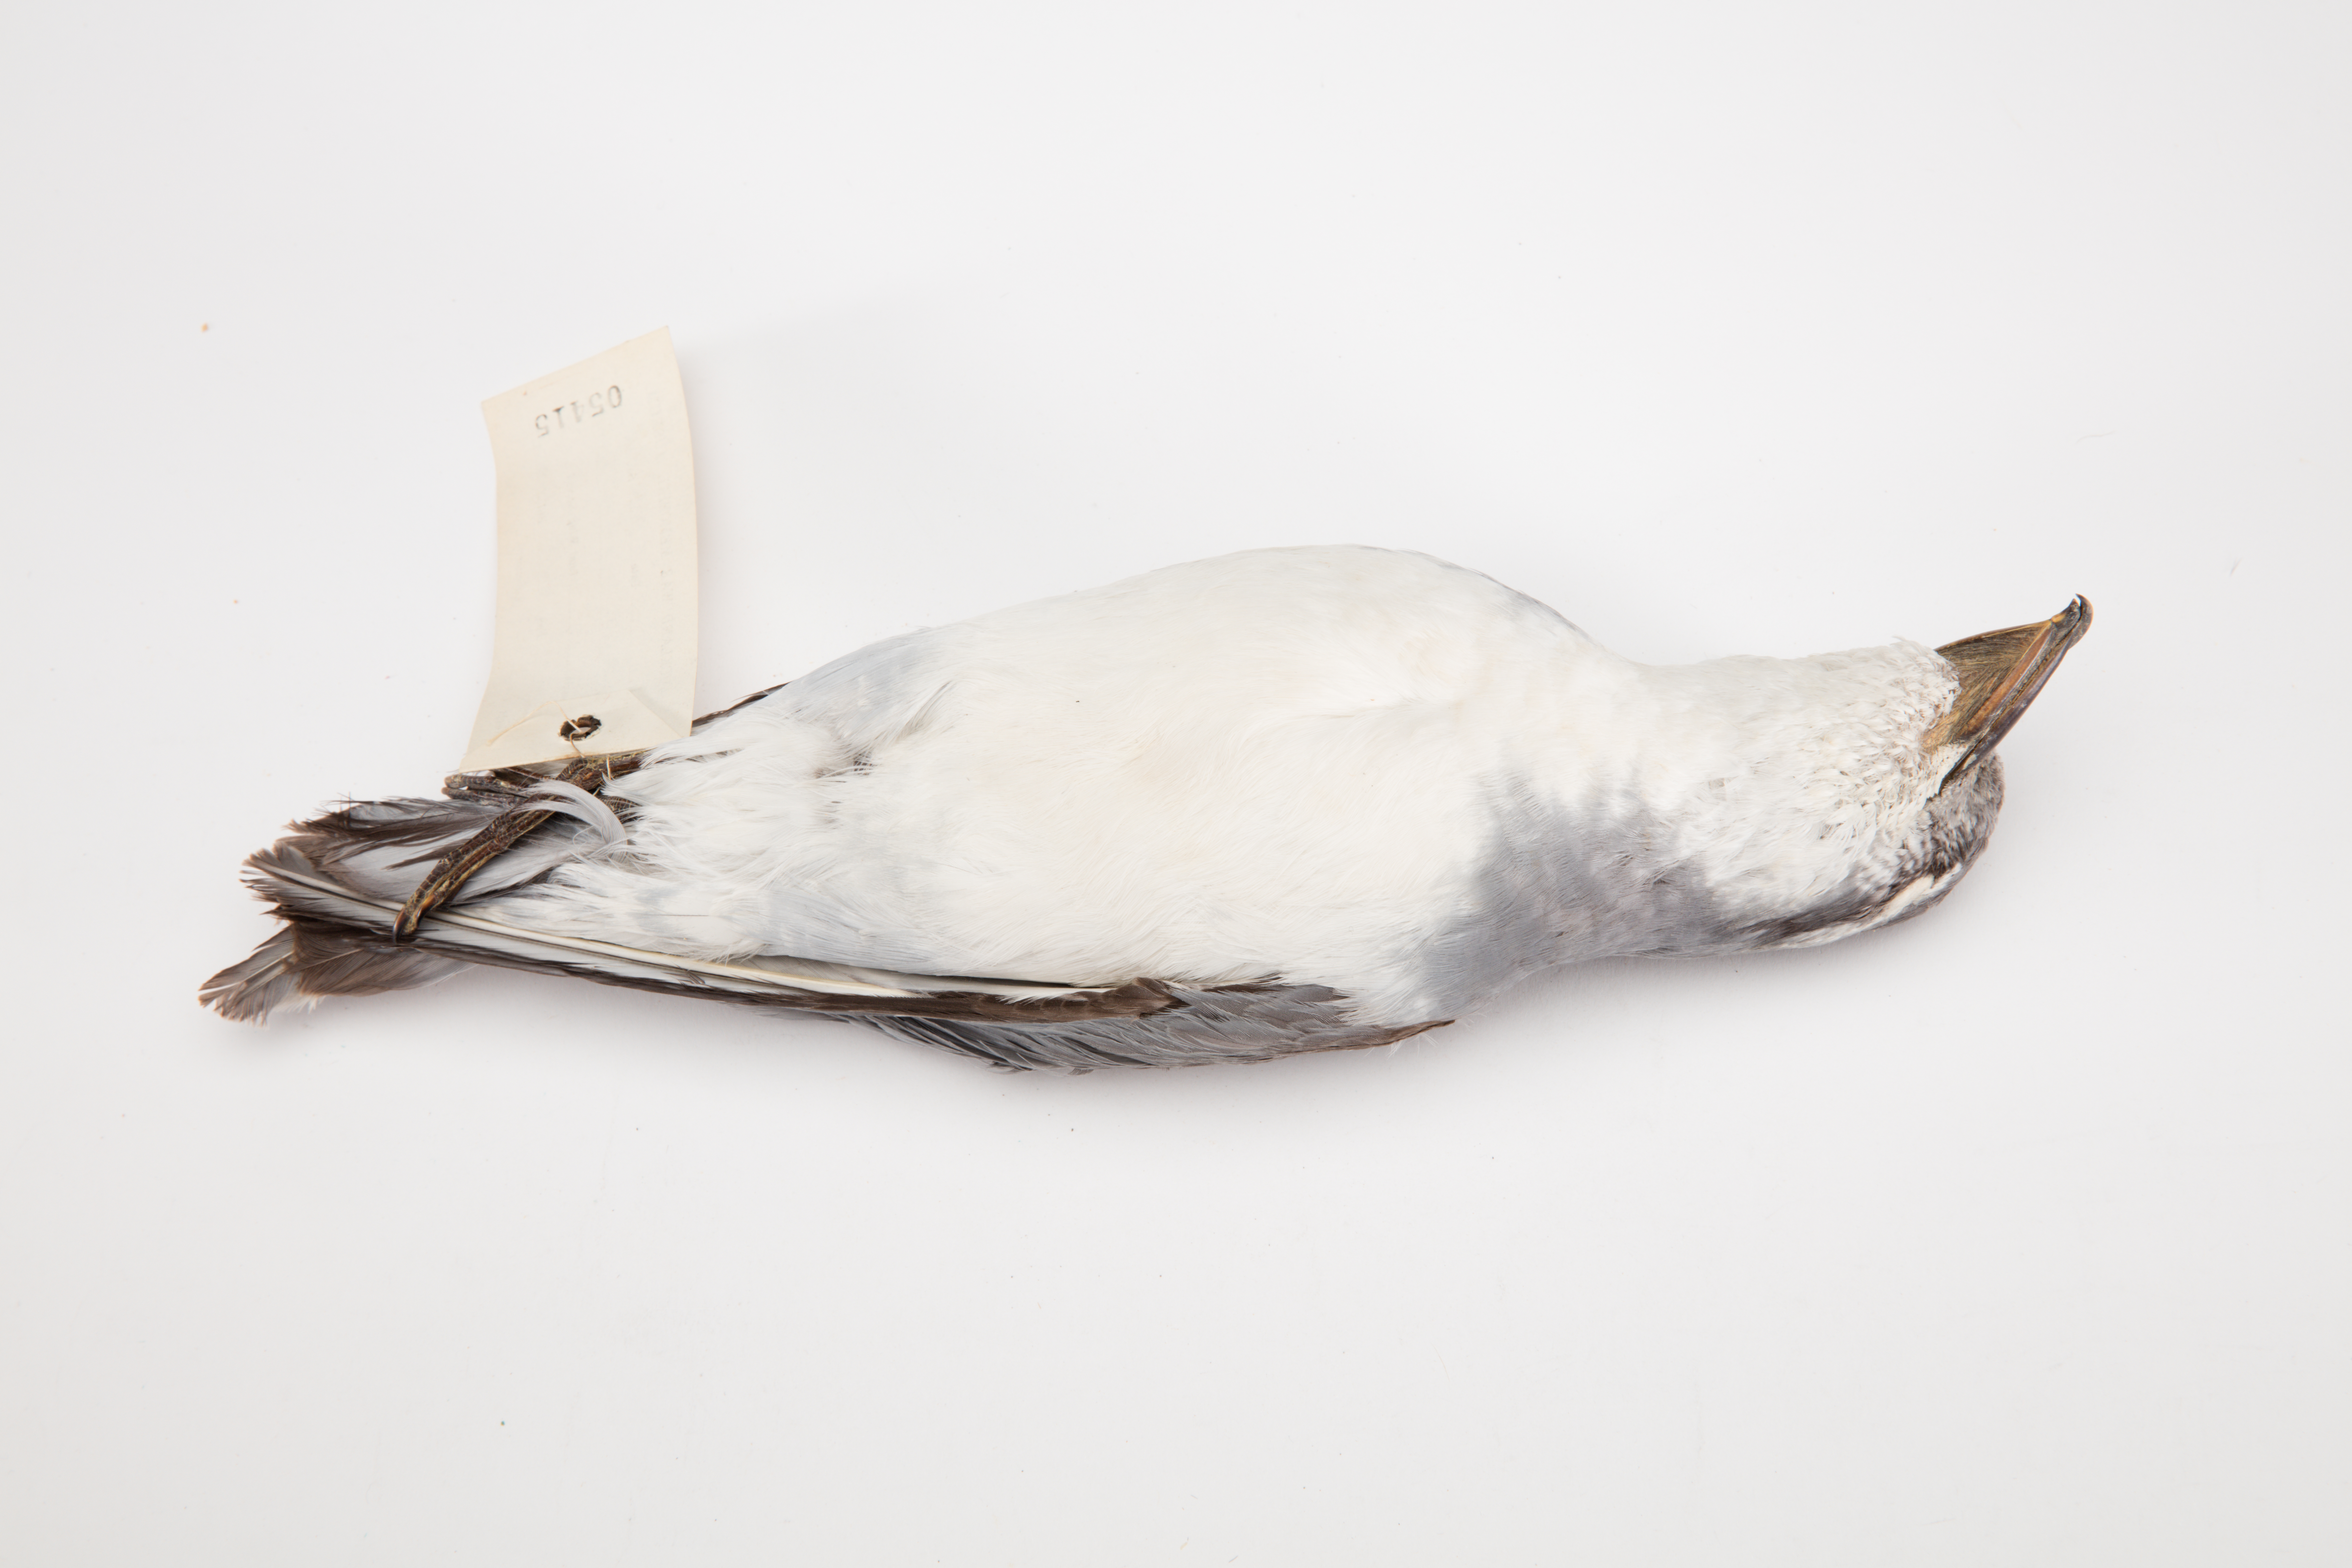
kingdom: Animalia
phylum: Chordata
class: Aves
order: Procellariiformes
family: Procellariidae
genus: Pachyptila
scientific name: Pachyptila vittata
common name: Broad-billed prion
